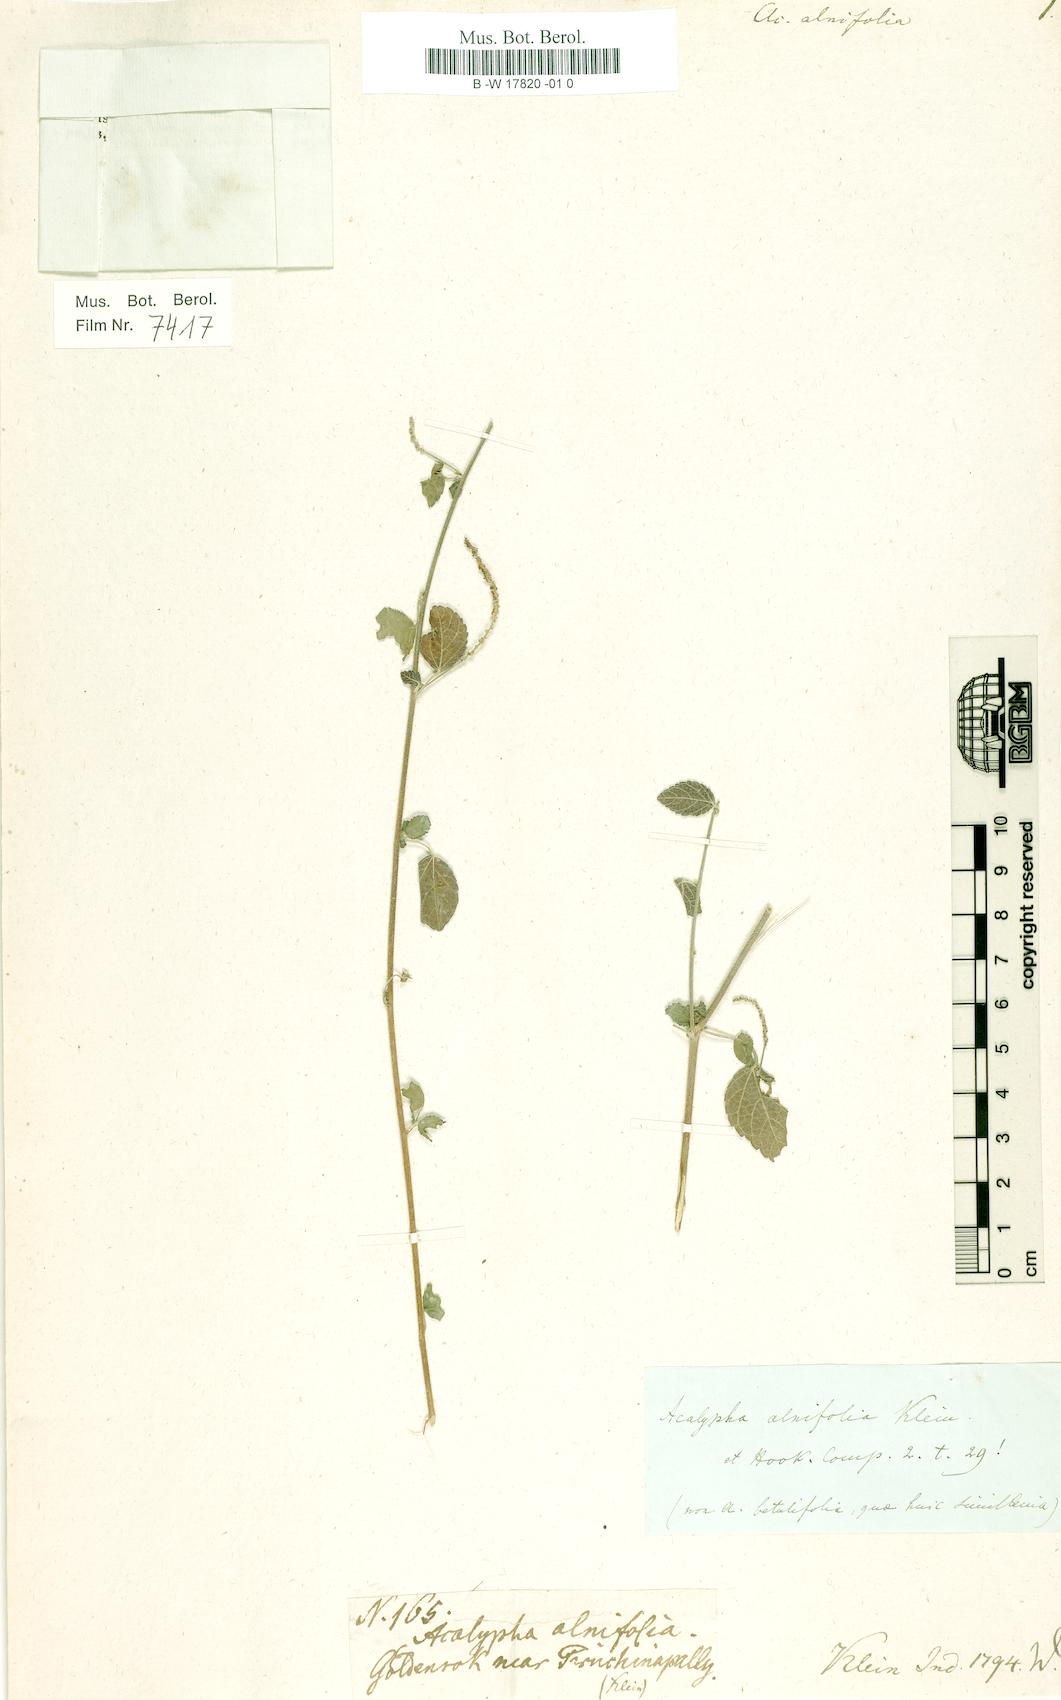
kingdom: Plantae
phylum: Tracheophyta
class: Magnoliopsida
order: Malpighiales
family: Euphorbiaceae
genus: Acalypha
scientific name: Acalypha capitata
